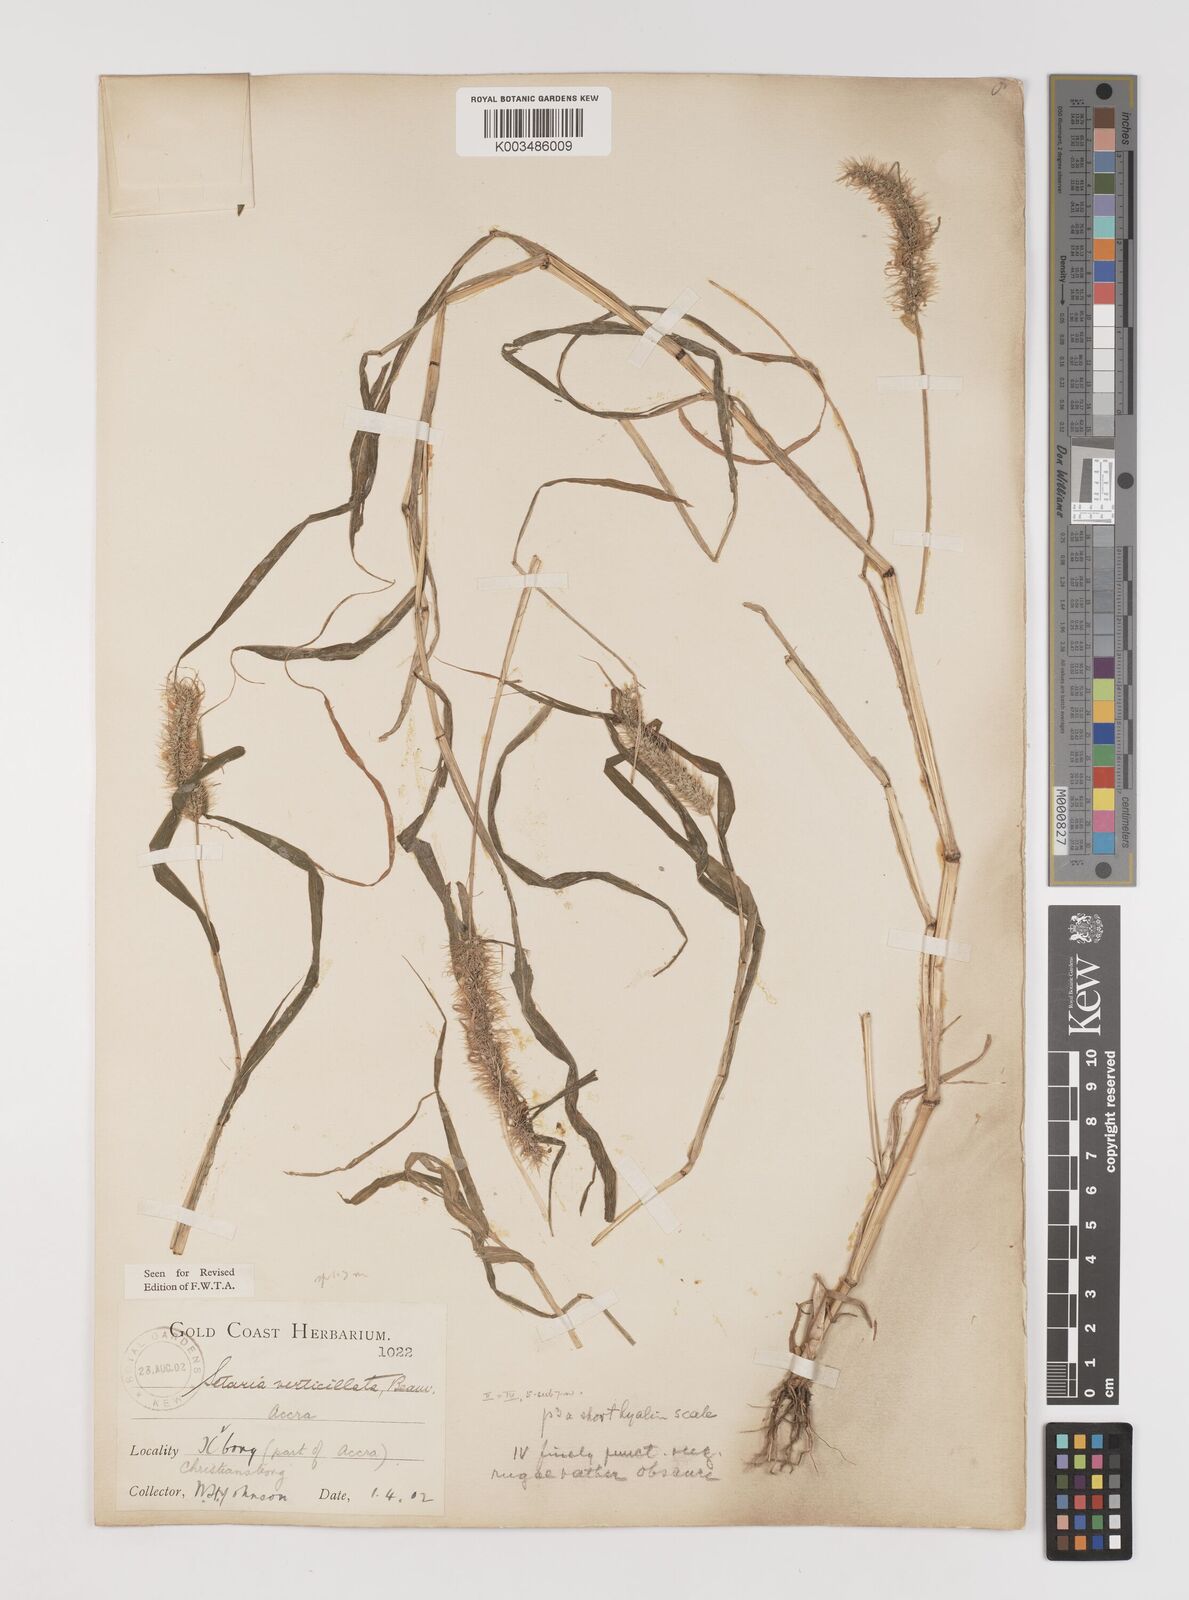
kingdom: Plantae
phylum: Tracheophyta
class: Liliopsida
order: Poales
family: Poaceae
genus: Setaria
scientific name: Setaria verticillata
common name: Hooked bristlegrass
